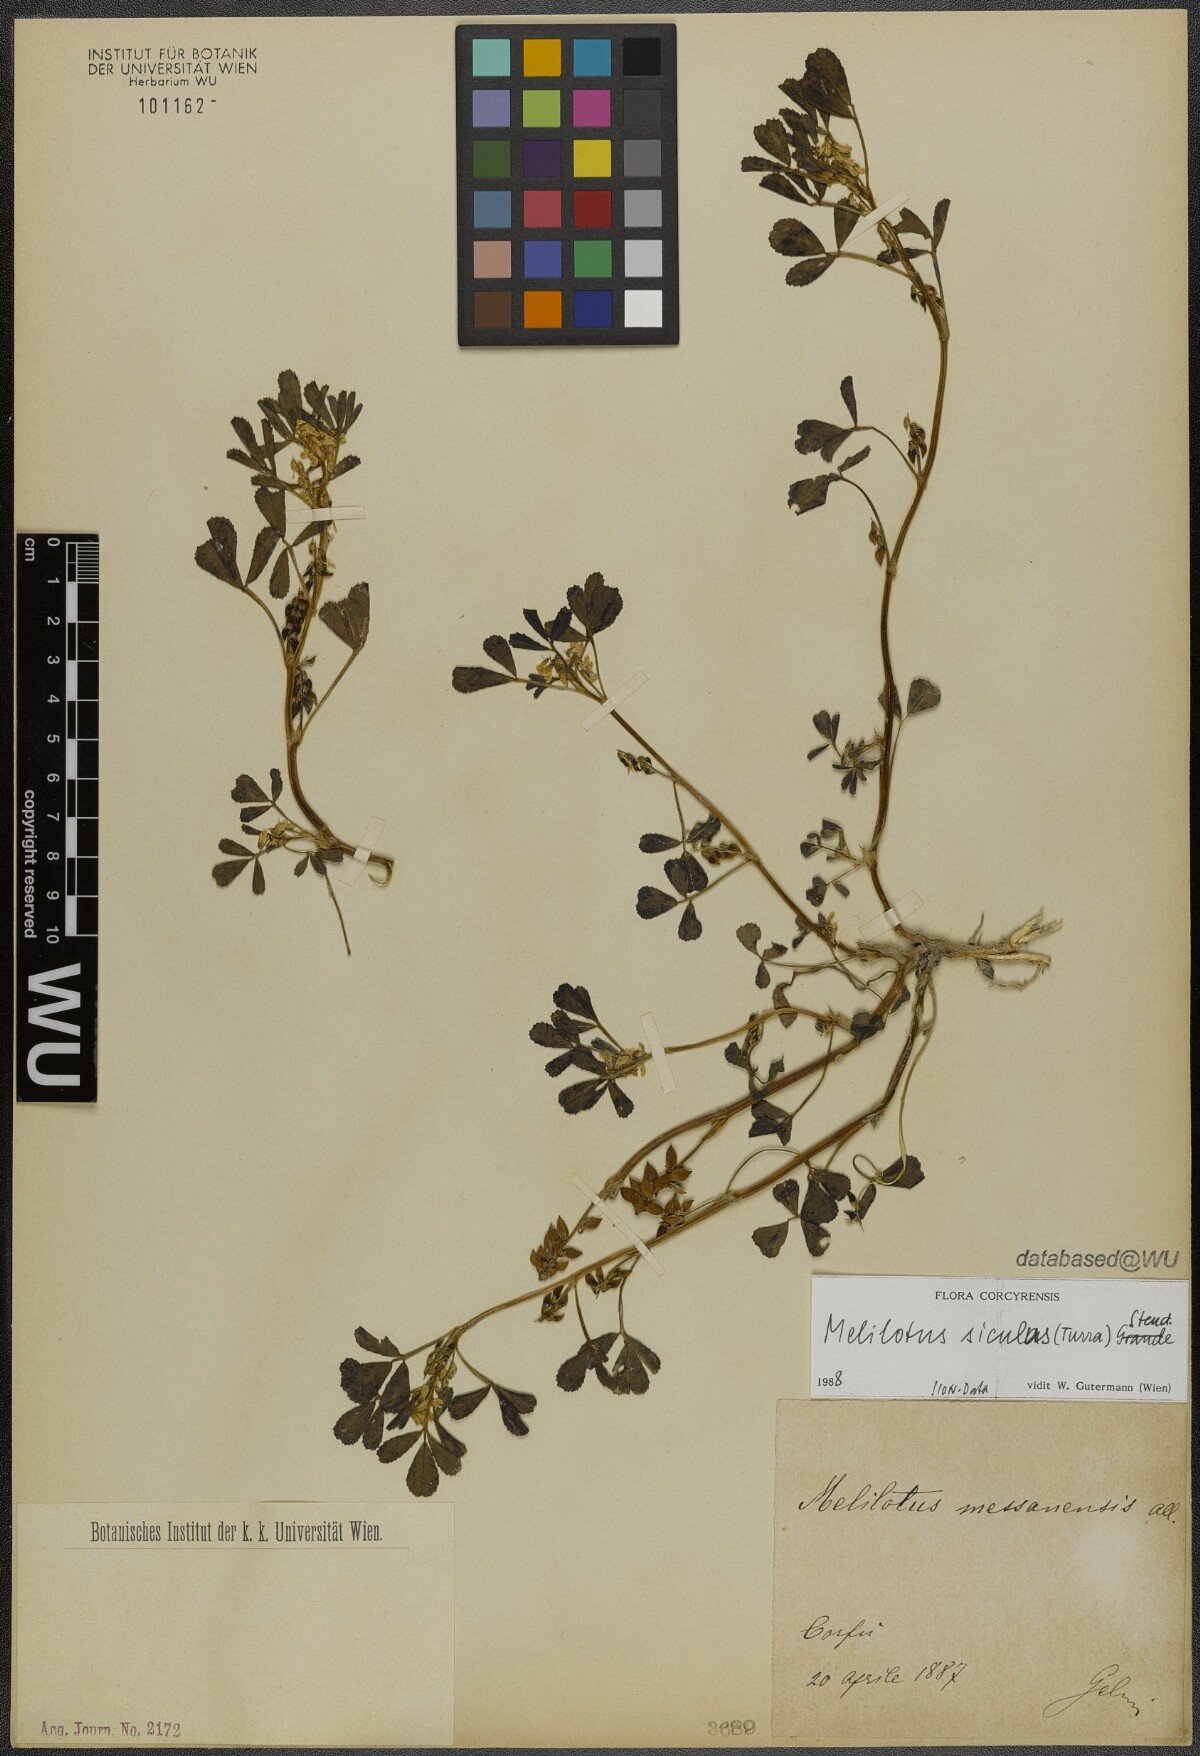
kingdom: Plantae
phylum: Tracheophyta
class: Magnoliopsida
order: Fabales
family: Fabaceae
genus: Melilotus
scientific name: Melilotus siculus
